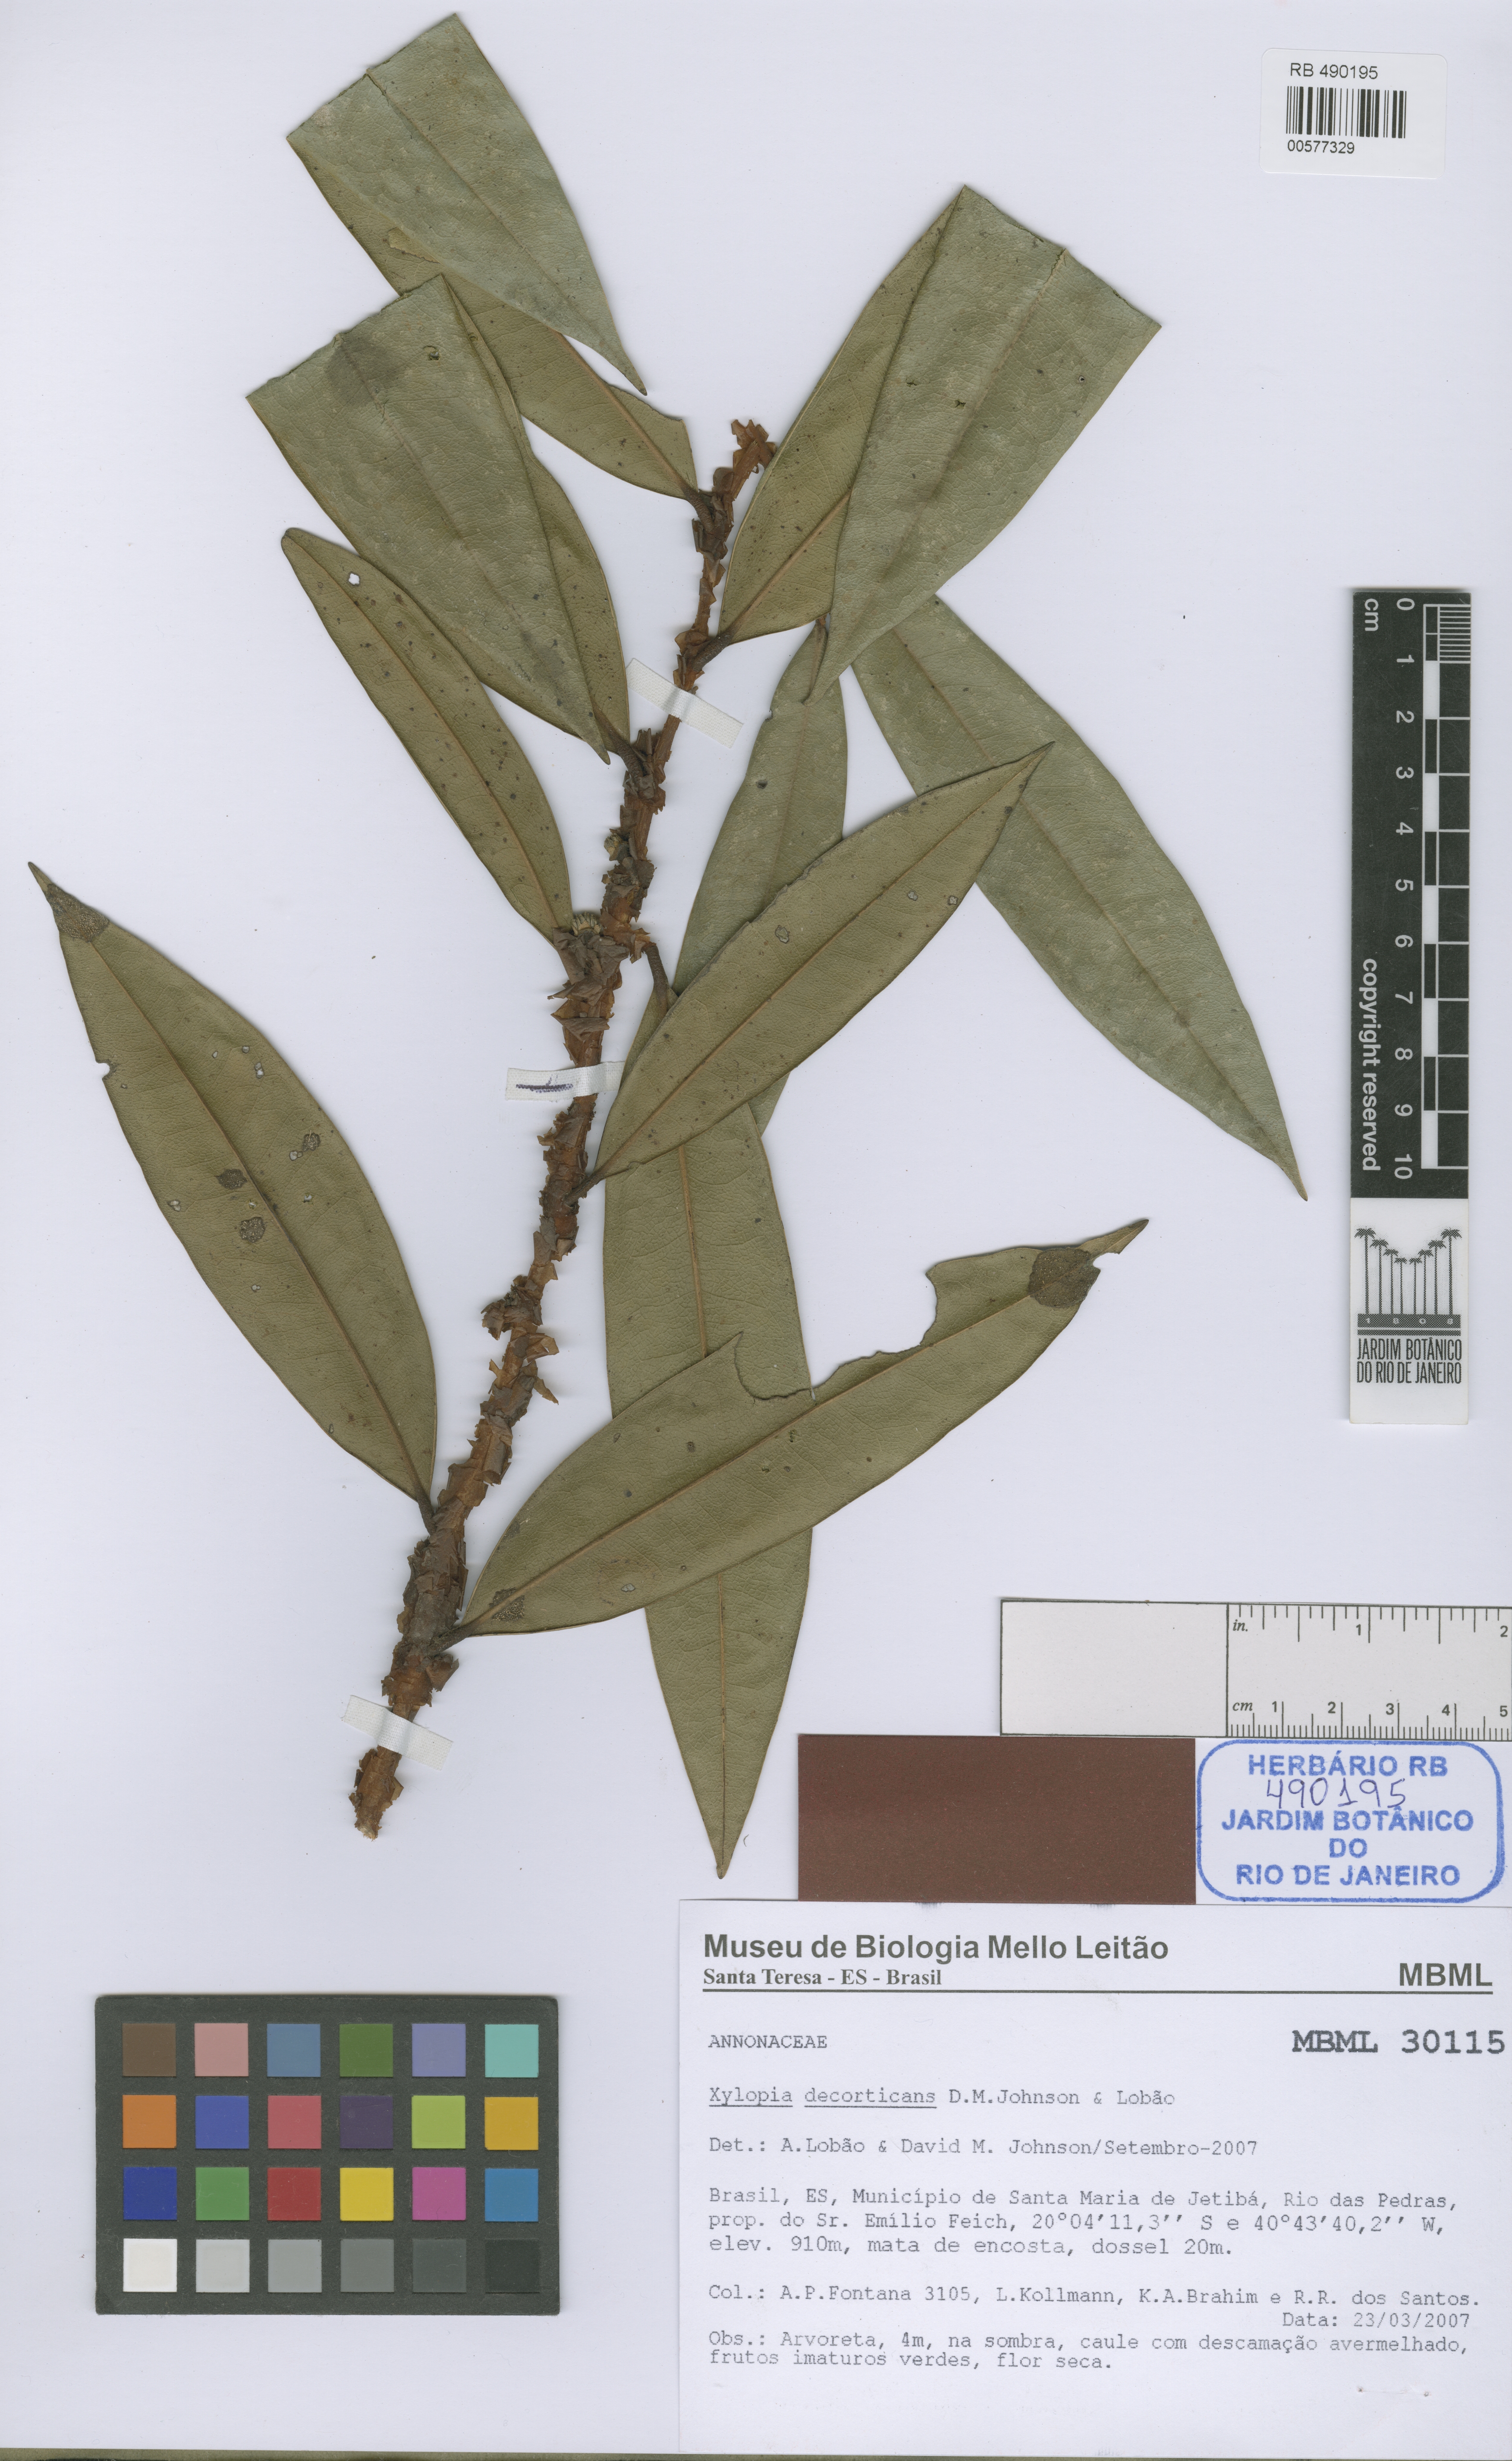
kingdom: Plantae
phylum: Tracheophyta
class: Magnoliopsida
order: Magnoliales
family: Annonaceae
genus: Xylopia
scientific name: Xylopia decorticans
